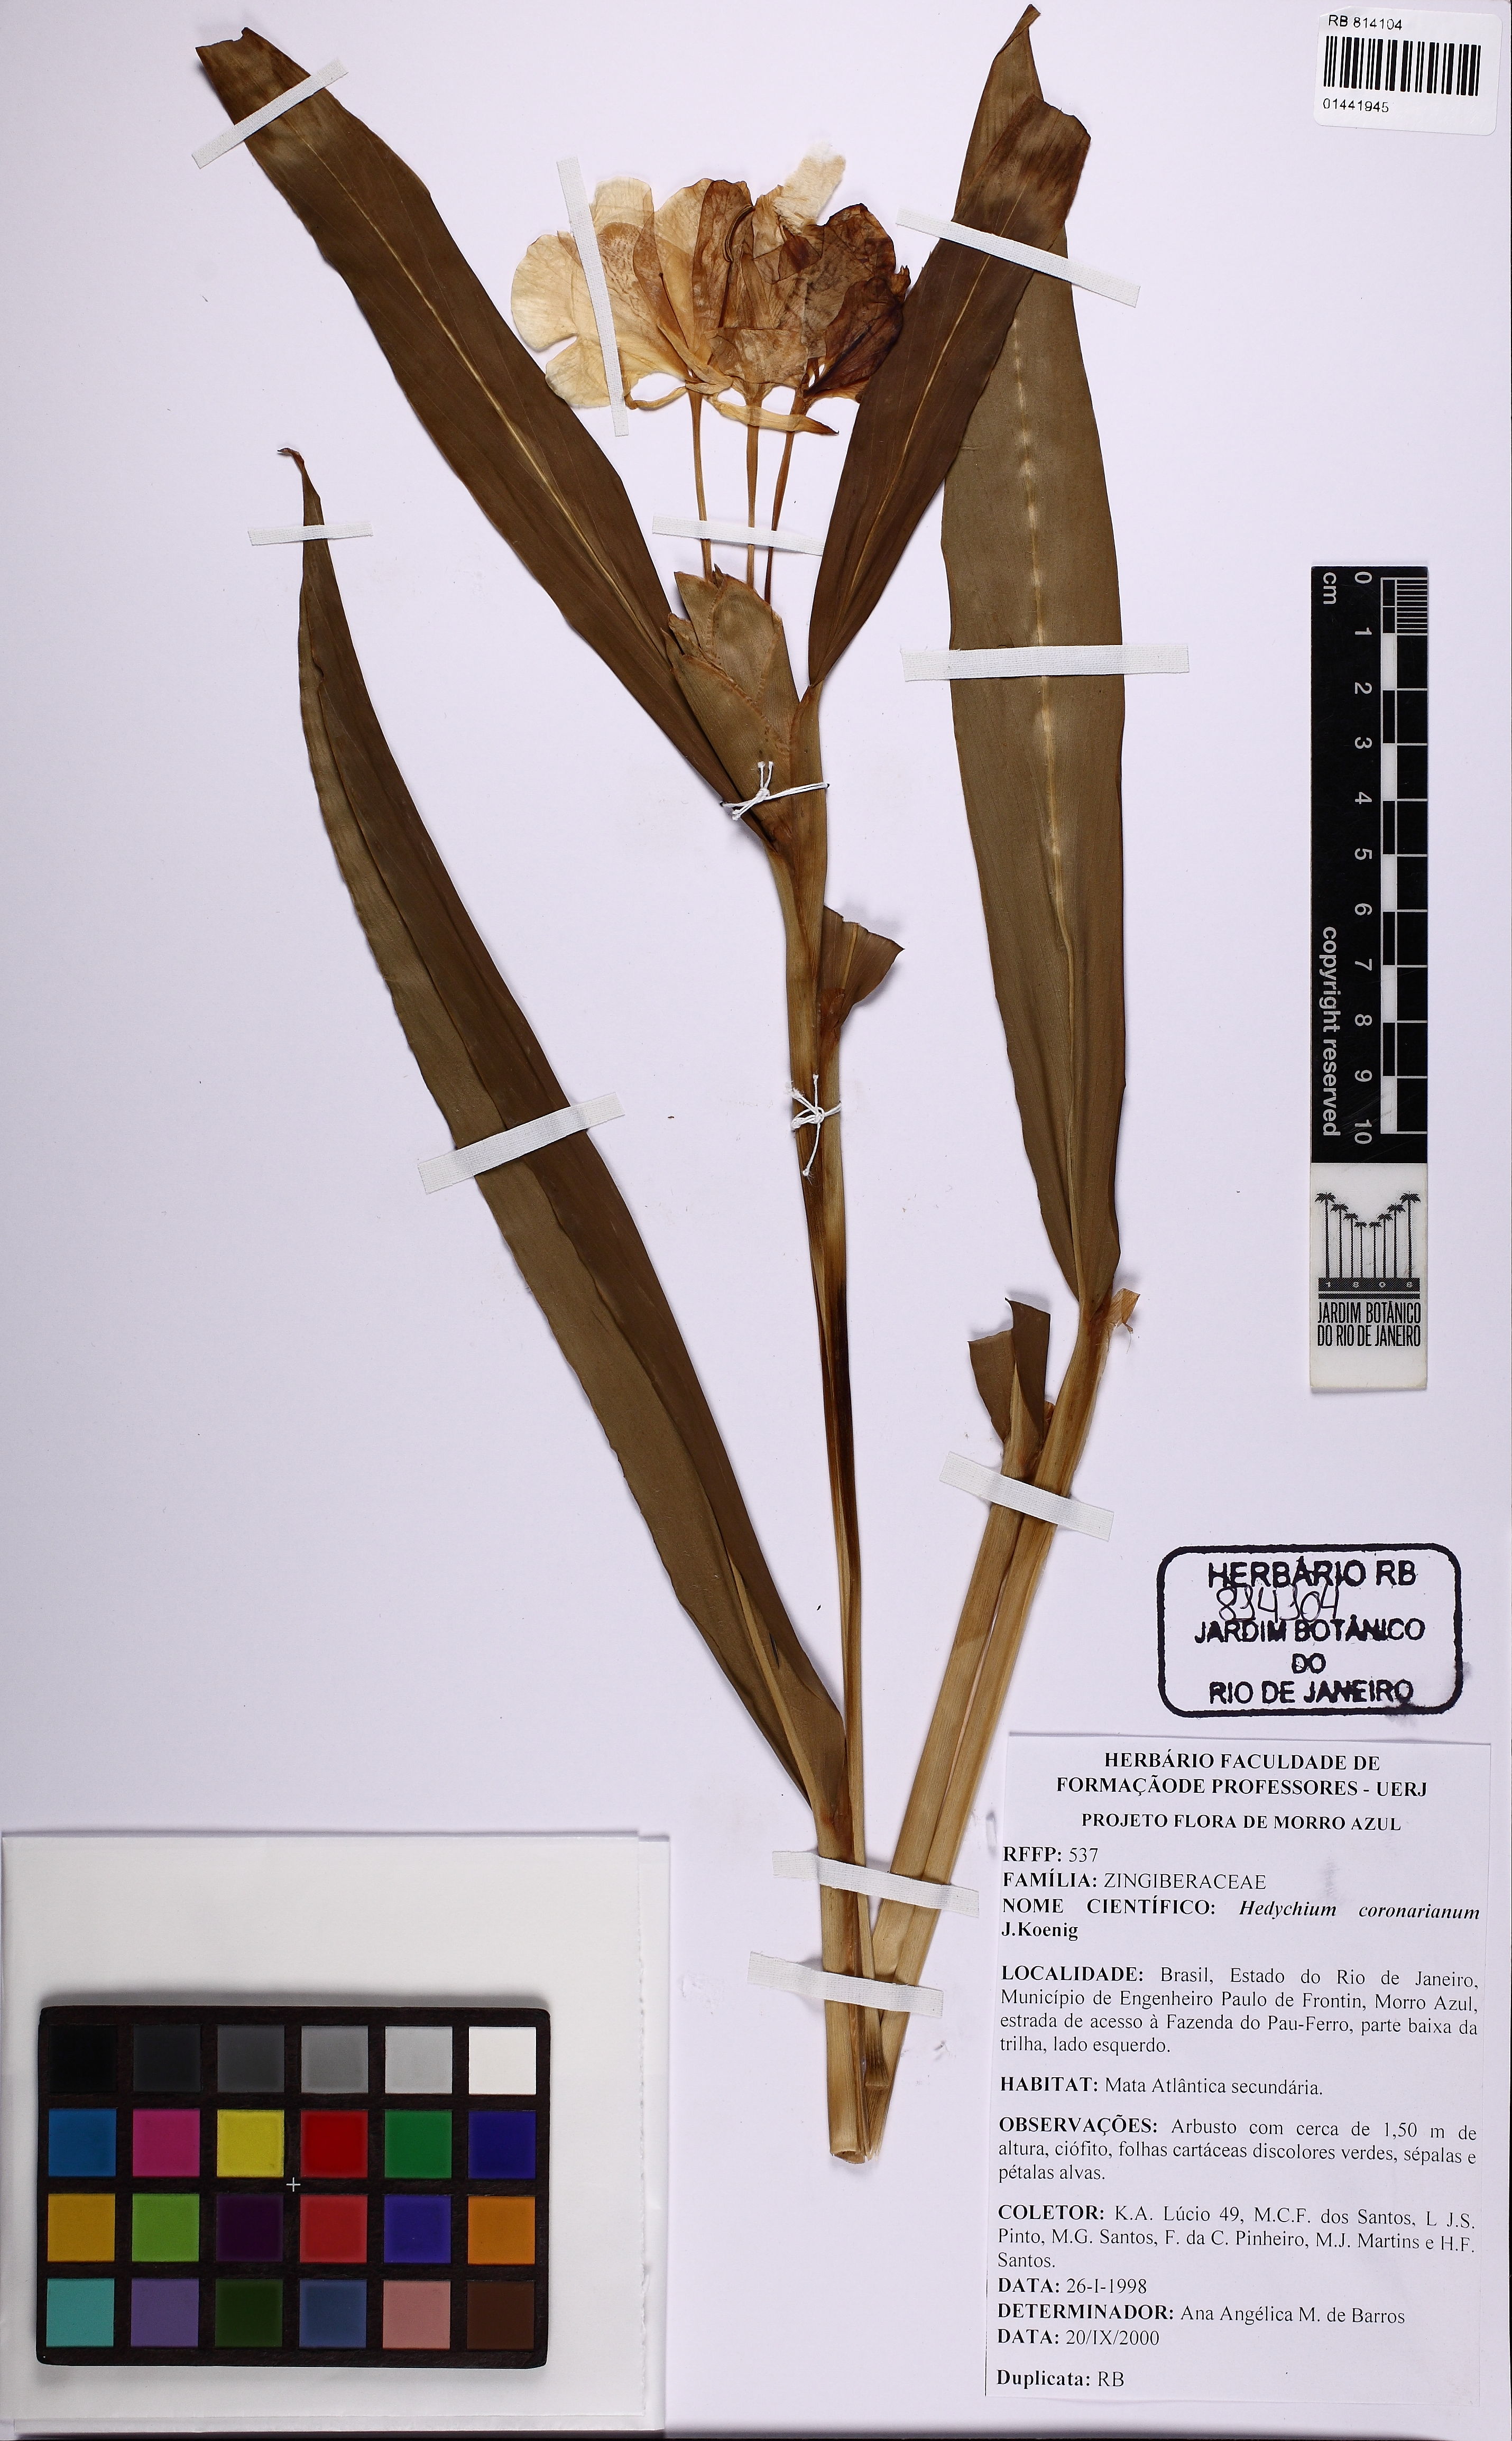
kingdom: Plantae
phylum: Tracheophyta
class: Liliopsida
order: Zingiberales
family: Zingiberaceae
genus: Hedychium
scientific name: Hedychium coronarium
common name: White garland-lily
